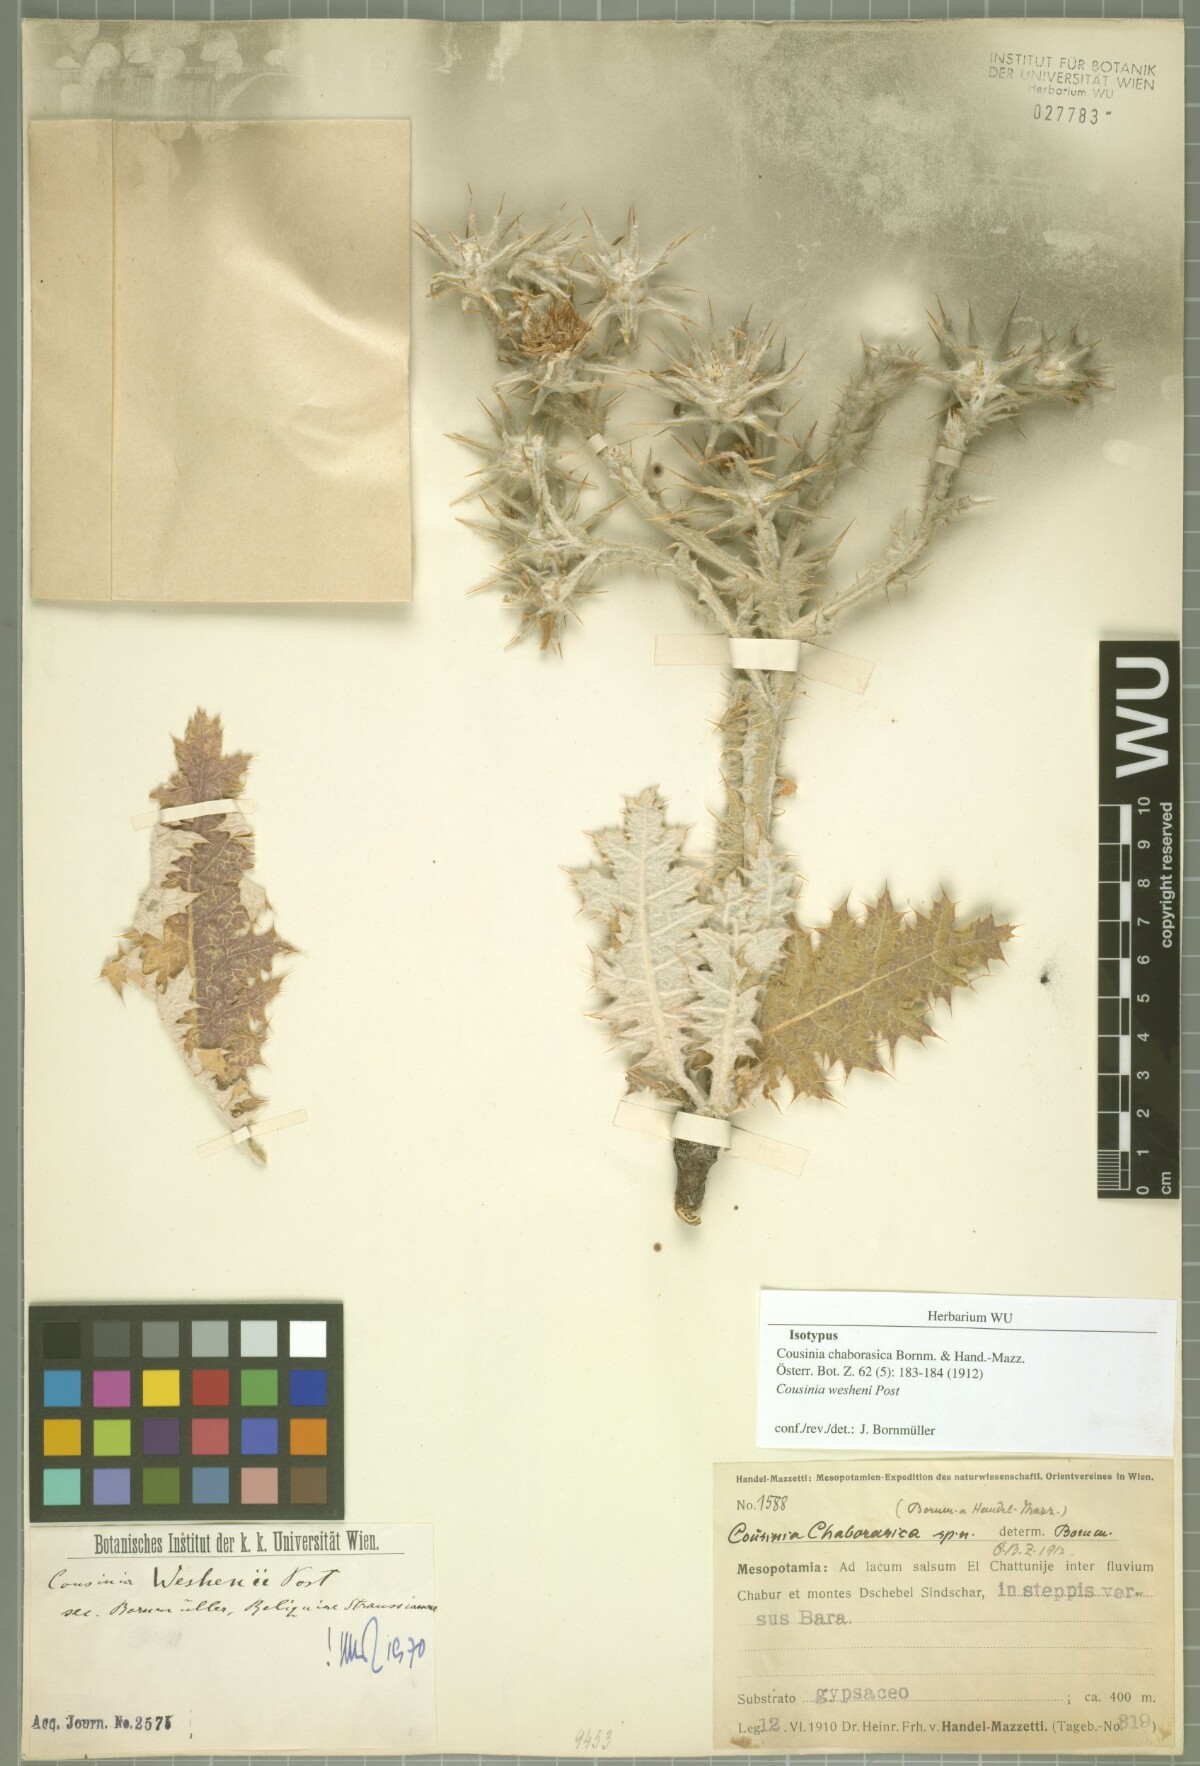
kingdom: Plantae
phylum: Tracheophyta
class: Magnoliopsida
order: Asterales
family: Asteraceae
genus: Cousinia
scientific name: Cousinia wesheni
